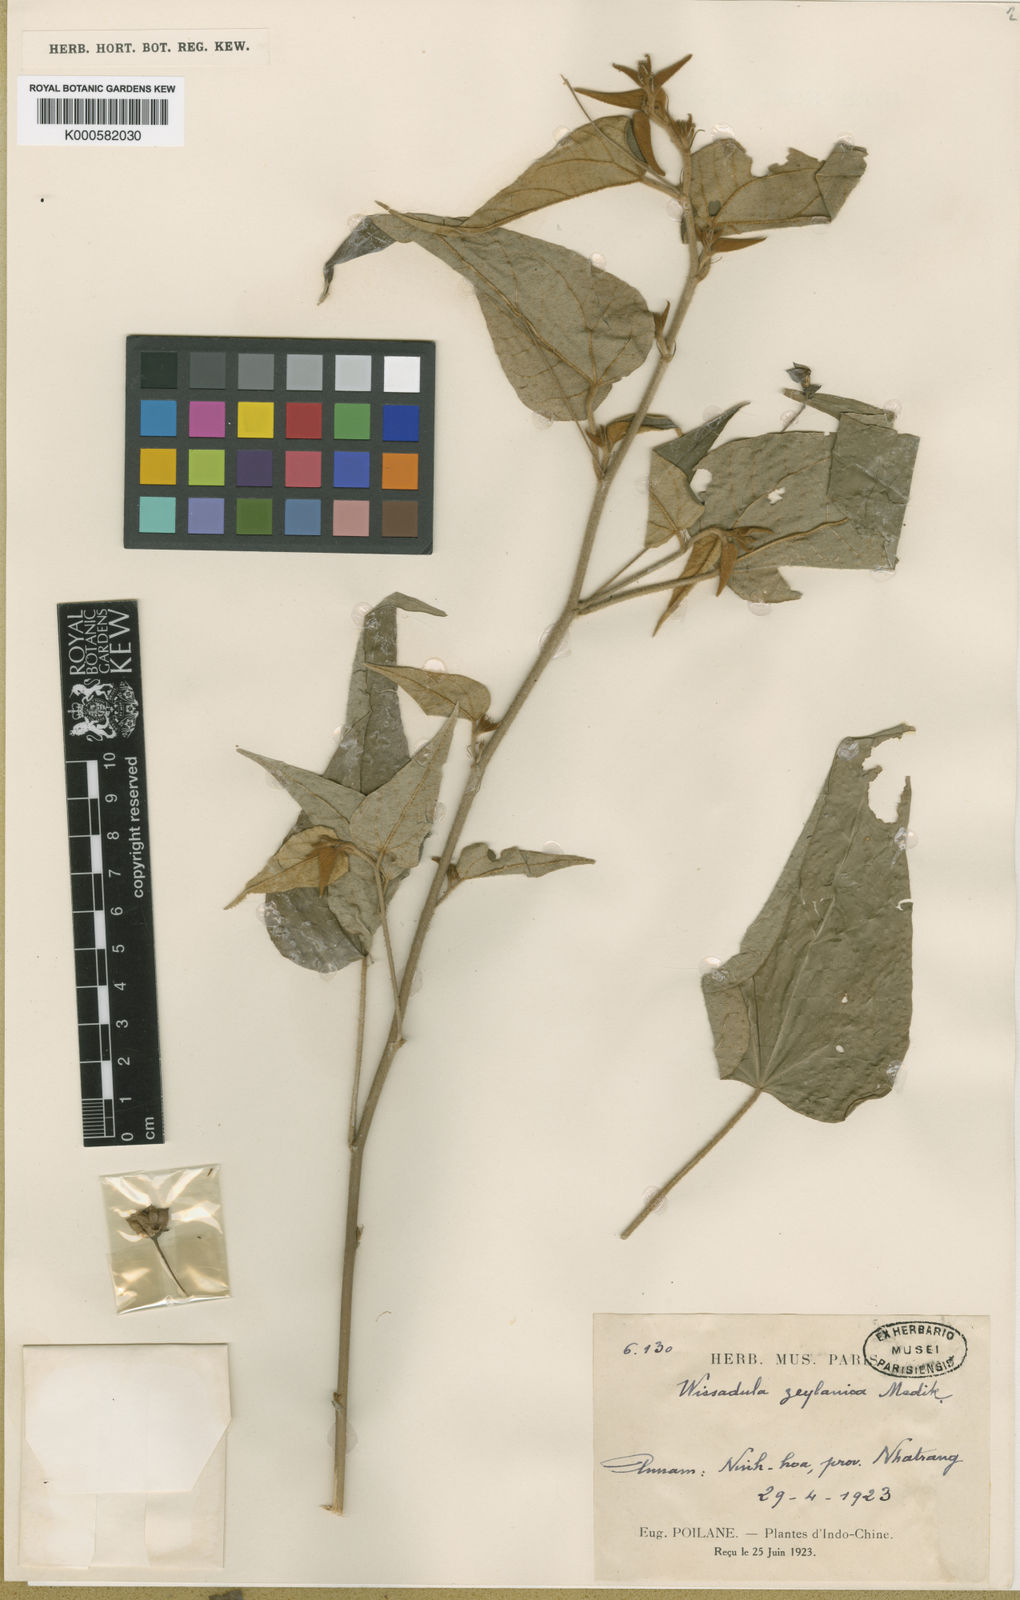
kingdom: Plantae
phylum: Tracheophyta
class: Magnoliopsida
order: Malvales
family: Malvaceae
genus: Wissadula
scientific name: Wissadula periplocifolia
